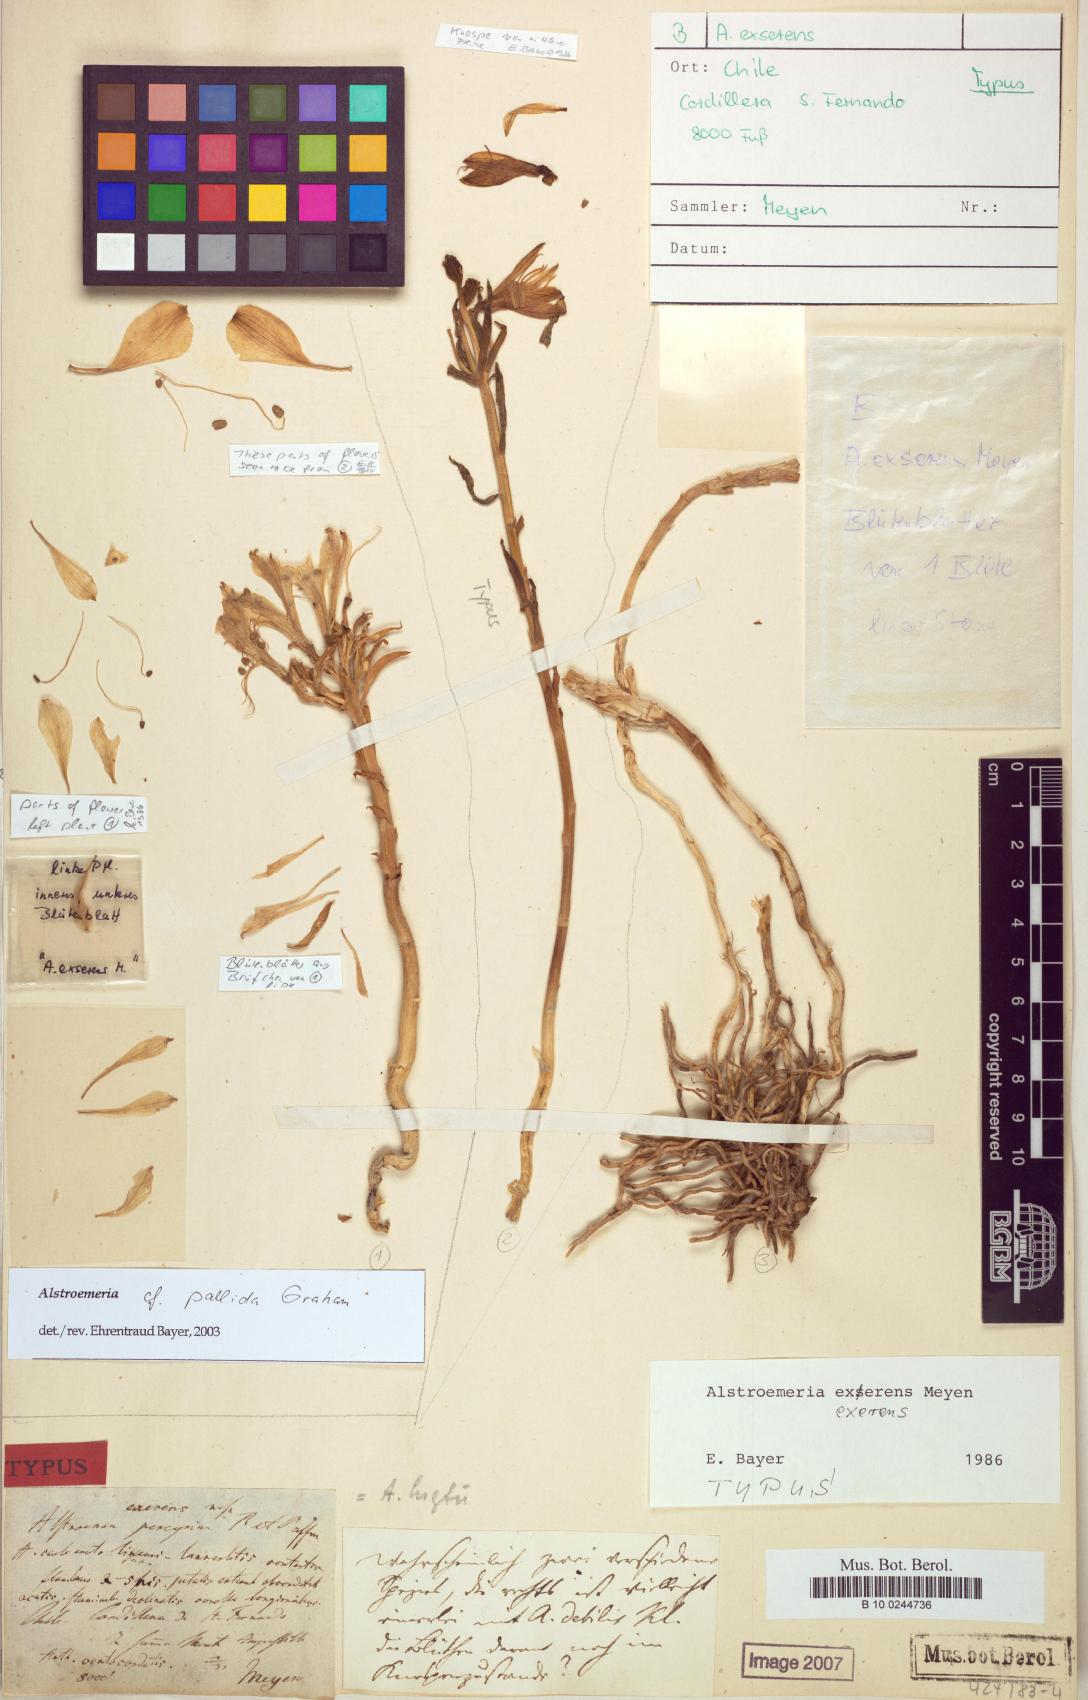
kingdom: Plantae
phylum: Tracheophyta
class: Liliopsida
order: Liliales
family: Alstroemeriaceae
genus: Alstroemeria
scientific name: Alstroemeria exserens
